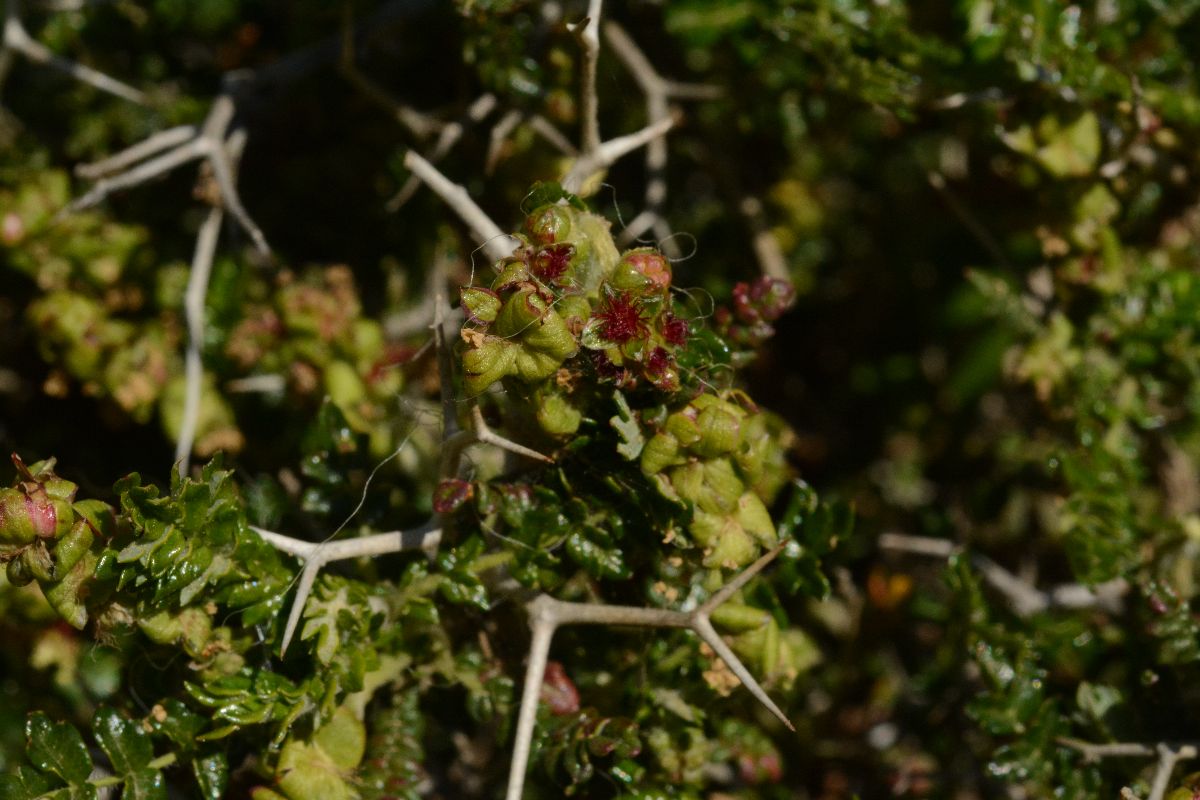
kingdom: Plantae
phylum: Tracheophyta
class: Magnoliopsida
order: Rosales
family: Rosaceae
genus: Sarcopoterium
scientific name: Sarcopoterium spinosum
